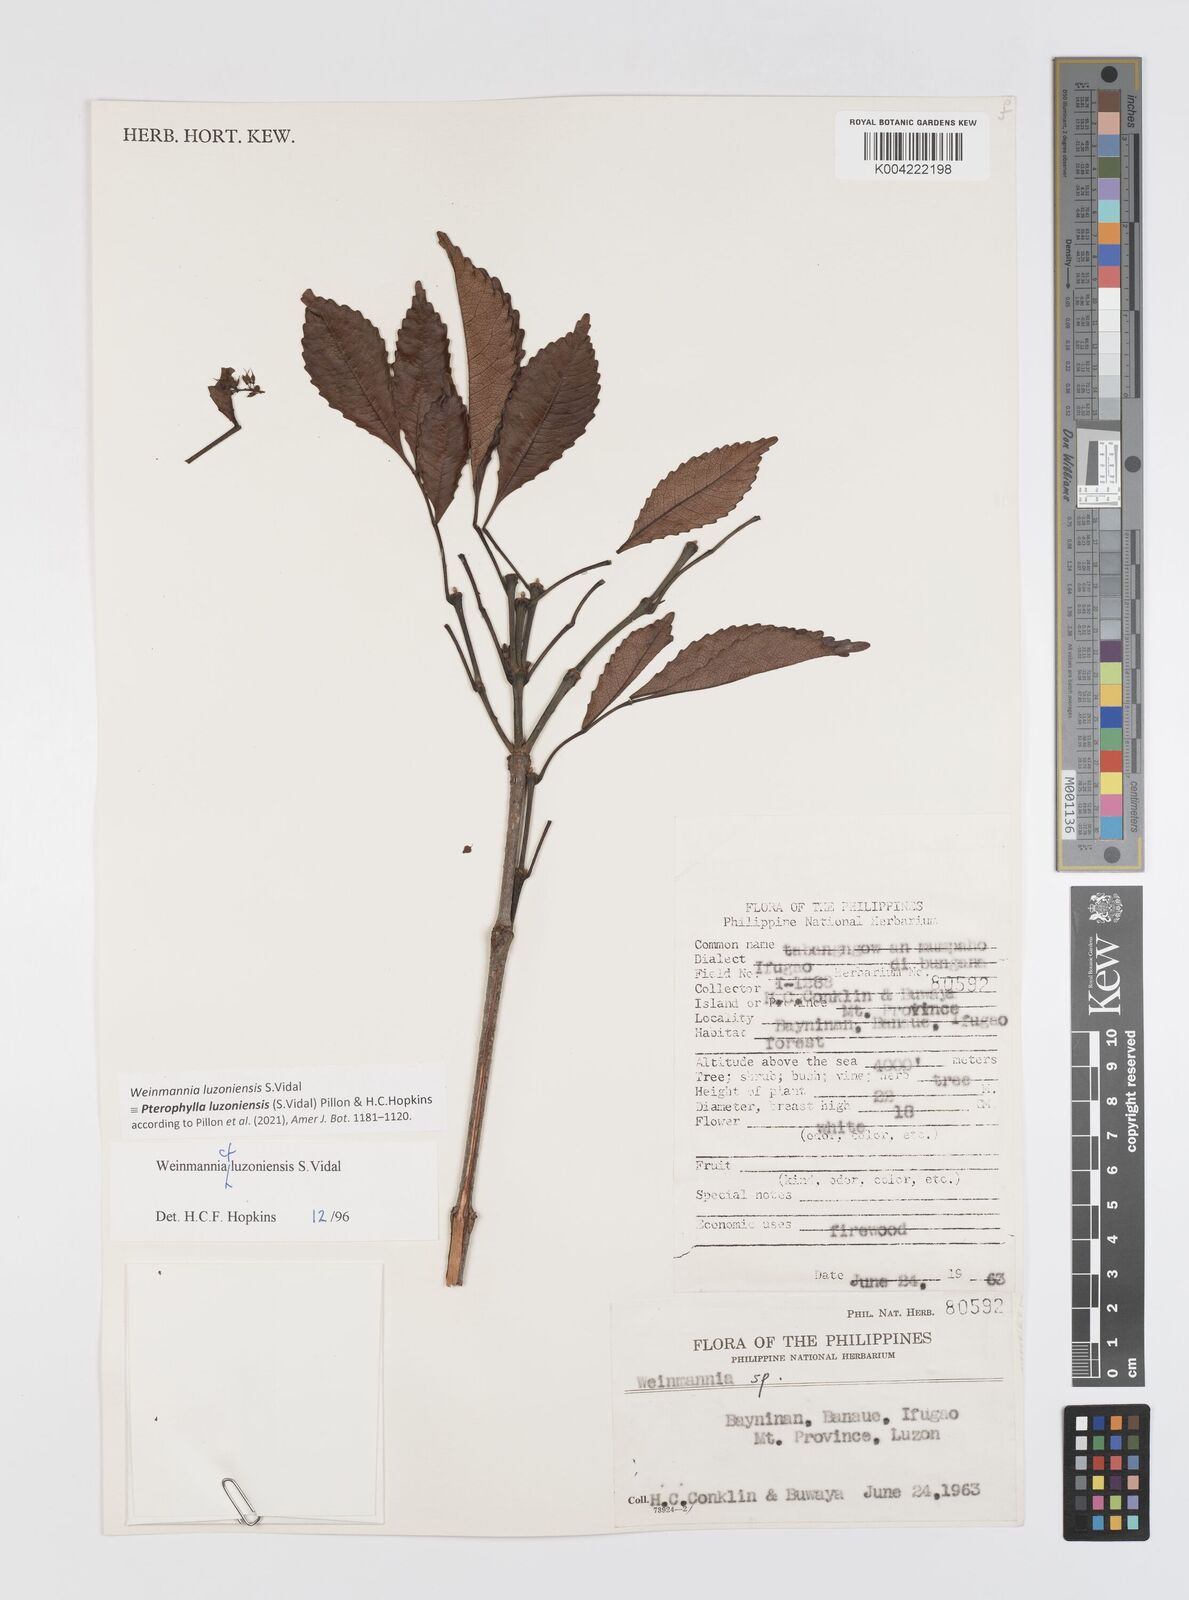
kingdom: Plantae
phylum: Tracheophyta
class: Magnoliopsida
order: Oxalidales
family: Cunoniaceae
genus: Pterophylla
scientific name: Pterophylla luzoniensis
